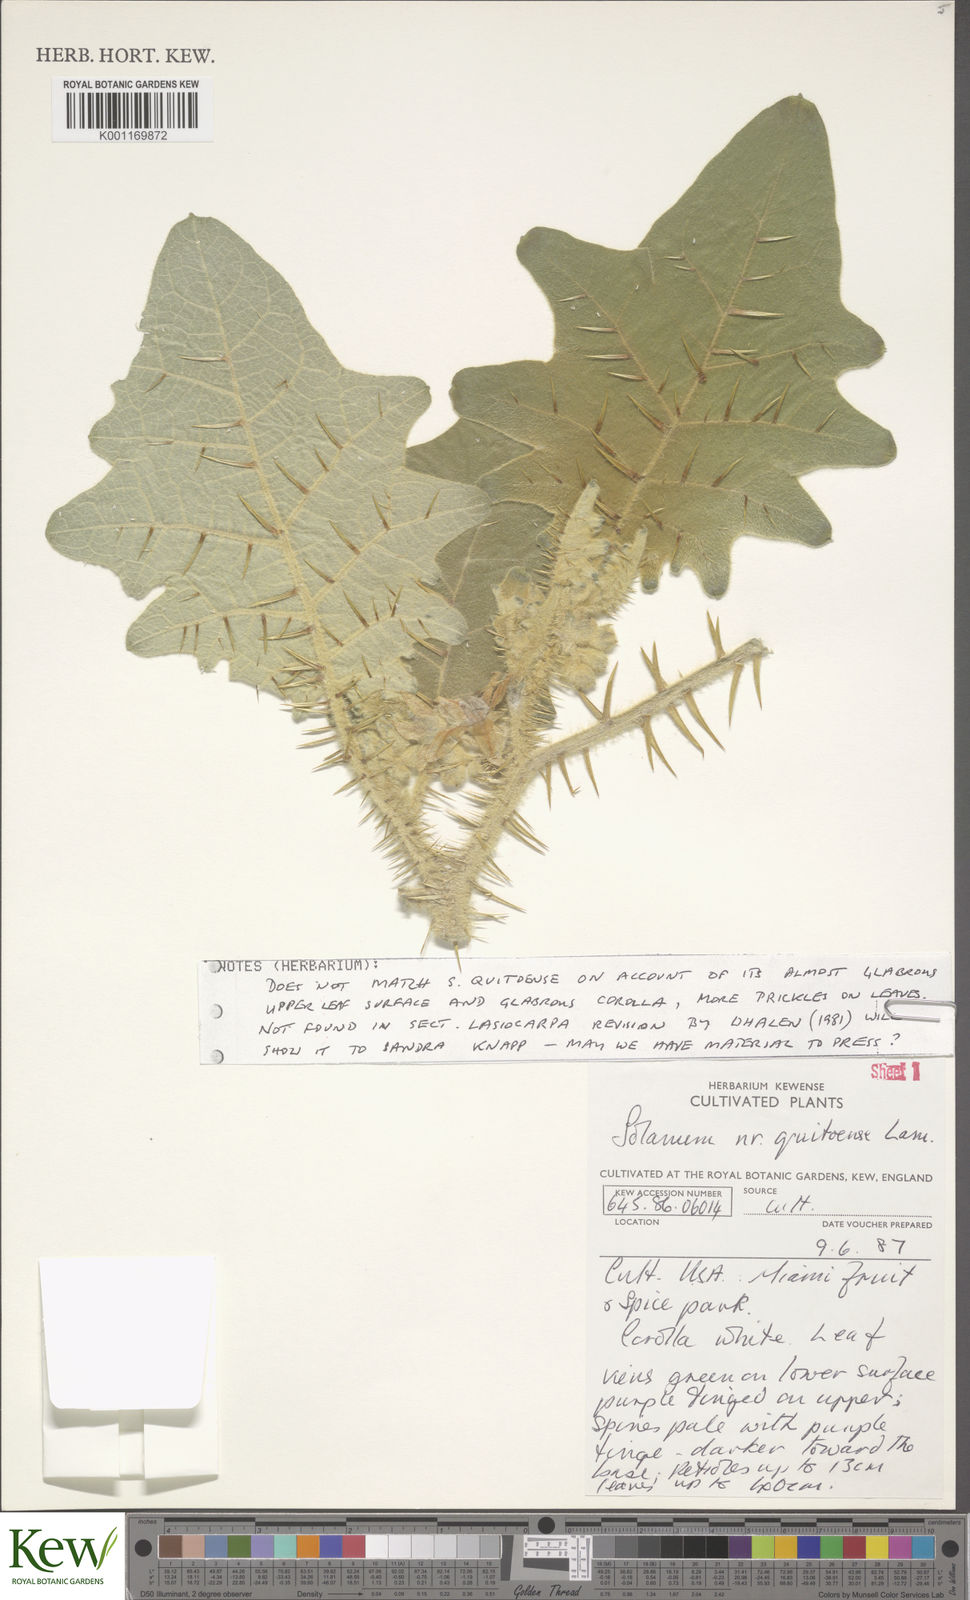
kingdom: Plantae
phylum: Tracheophyta
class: Magnoliopsida
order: Solanales
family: Solanaceae
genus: Solanum
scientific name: Solanum quitoense
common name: Quito-orange
